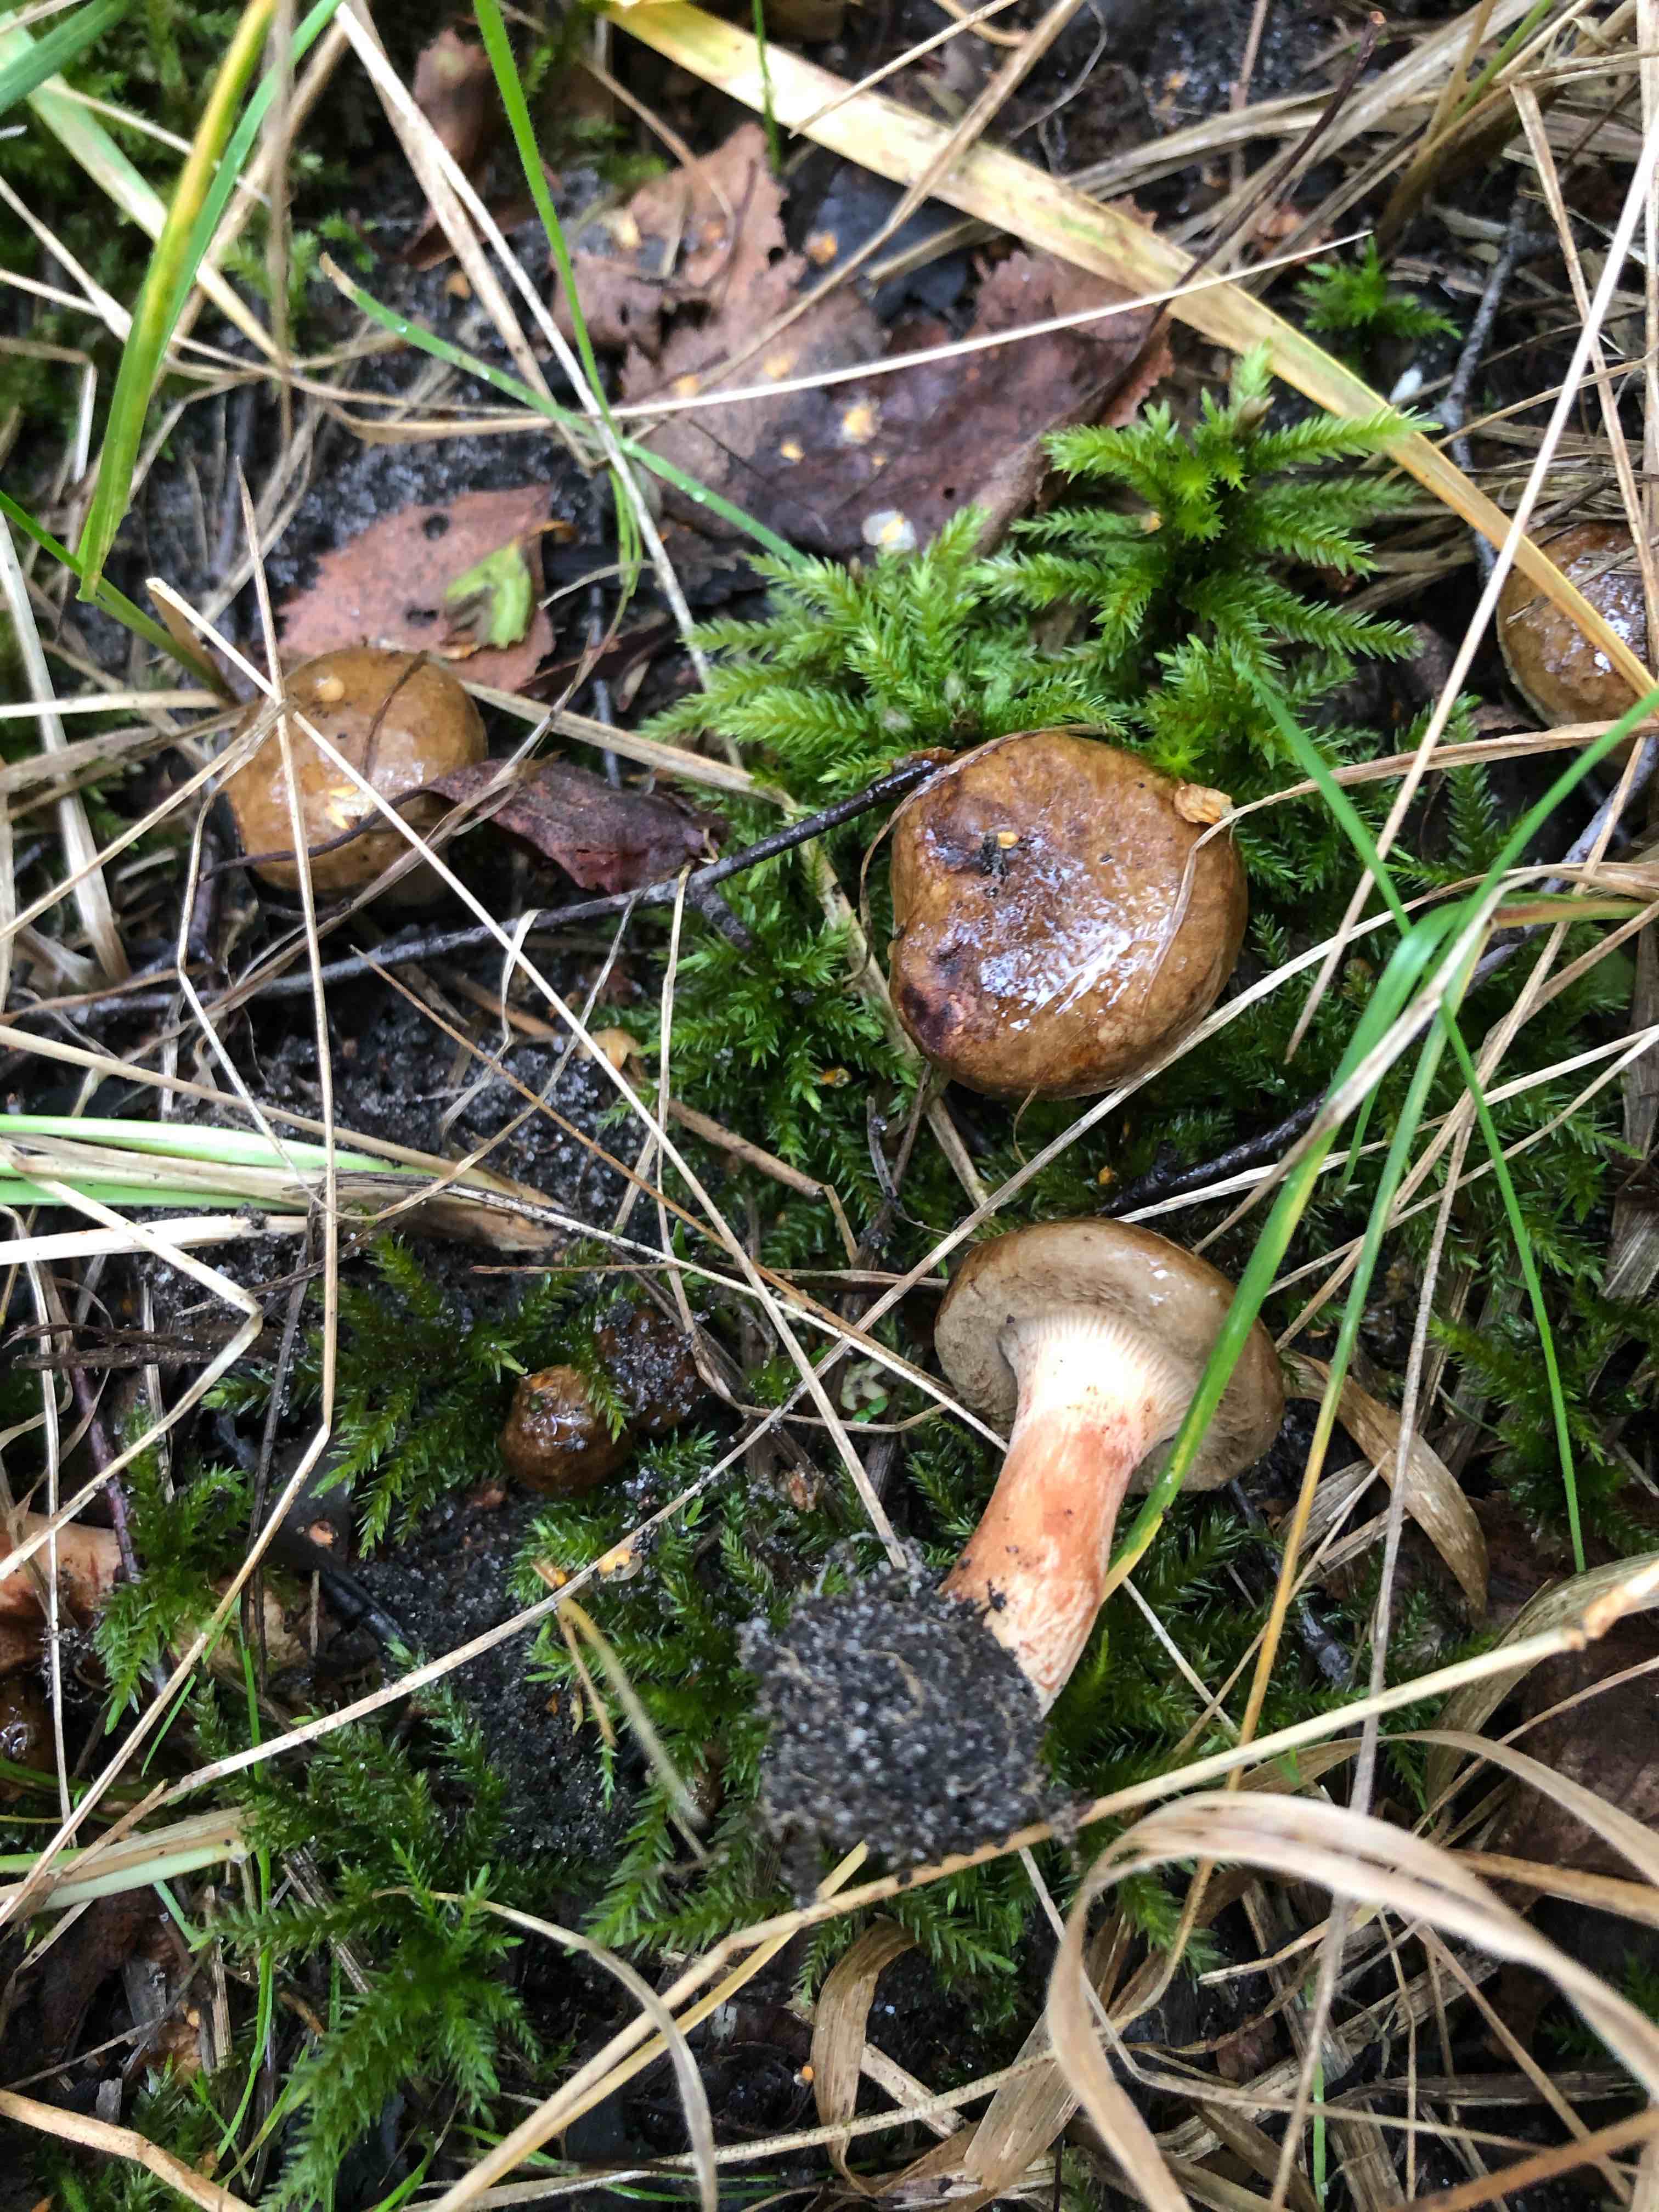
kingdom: Fungi
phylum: Basidiomycota
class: Agaricomycetes
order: Boletales
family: Paxillaceae
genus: Paxillus
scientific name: Paxillus involutus
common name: almindelig netbladhat
